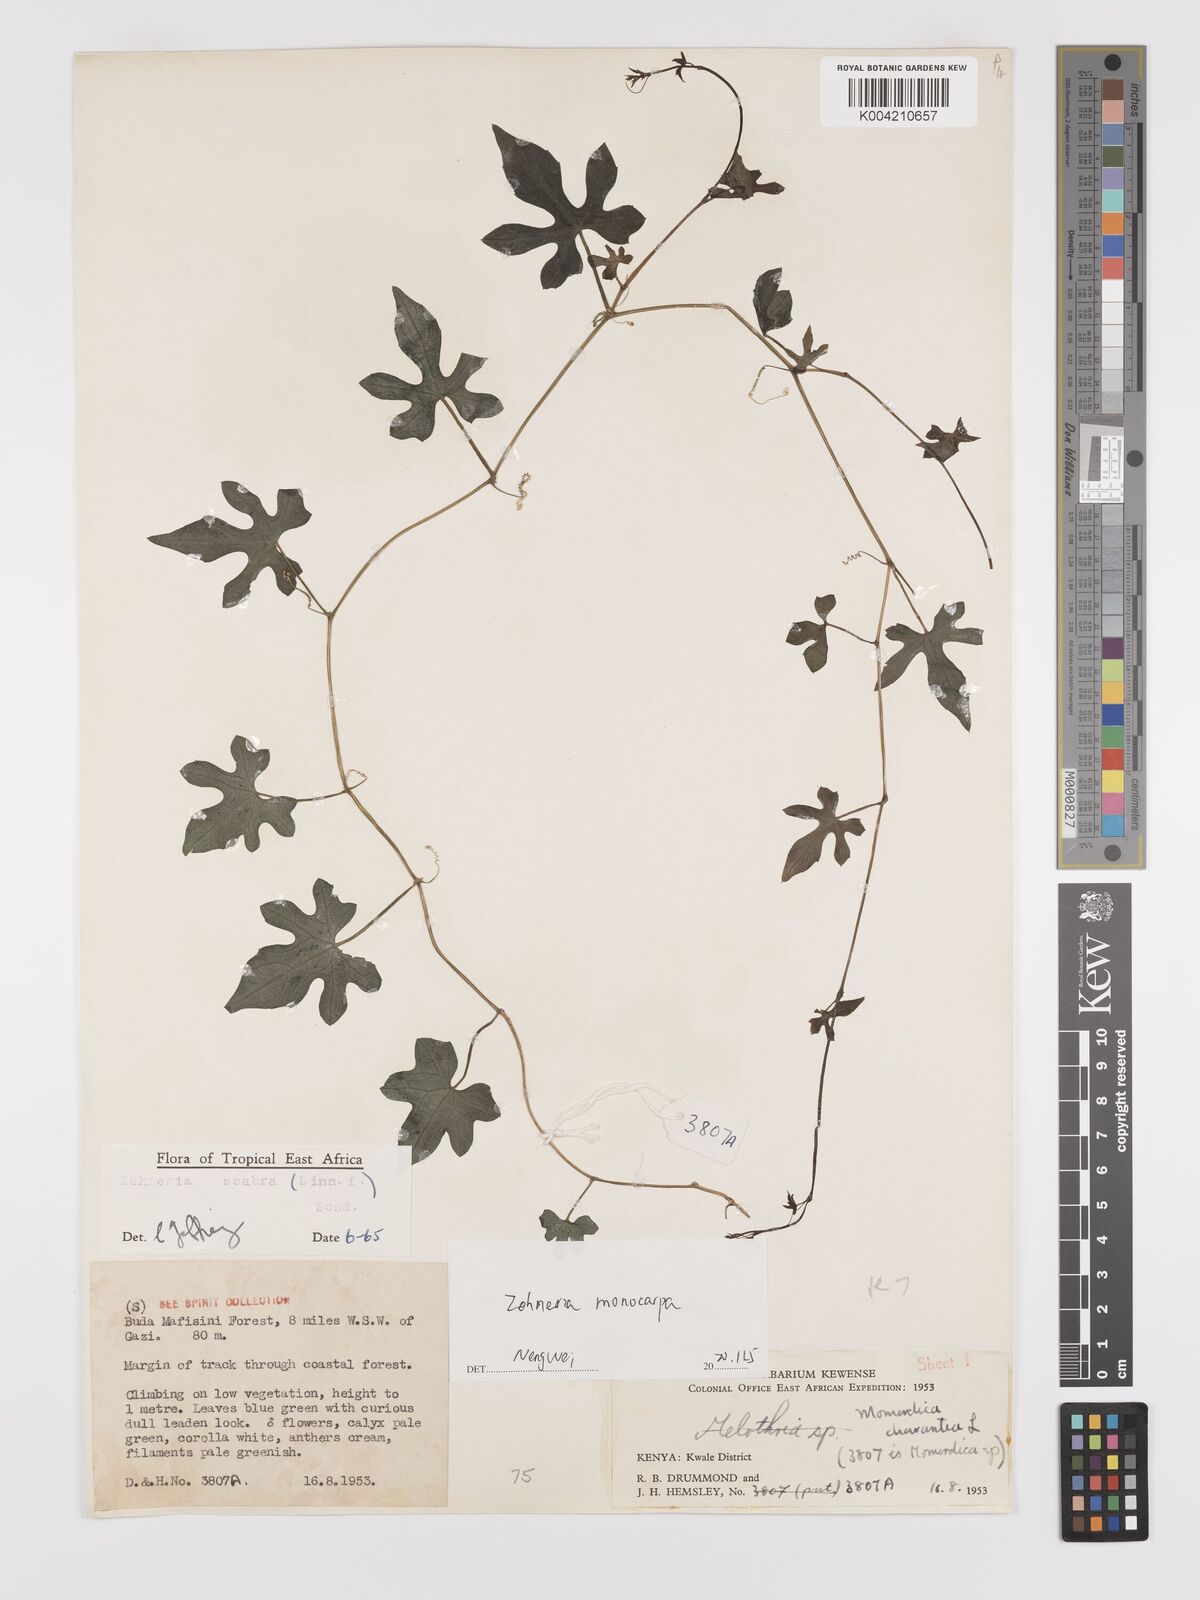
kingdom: Plantae
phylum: Tracheophyta
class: Magnoliopsida
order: Cucurbitales
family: Cucurbitaceae
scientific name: Cucurbitaceae
